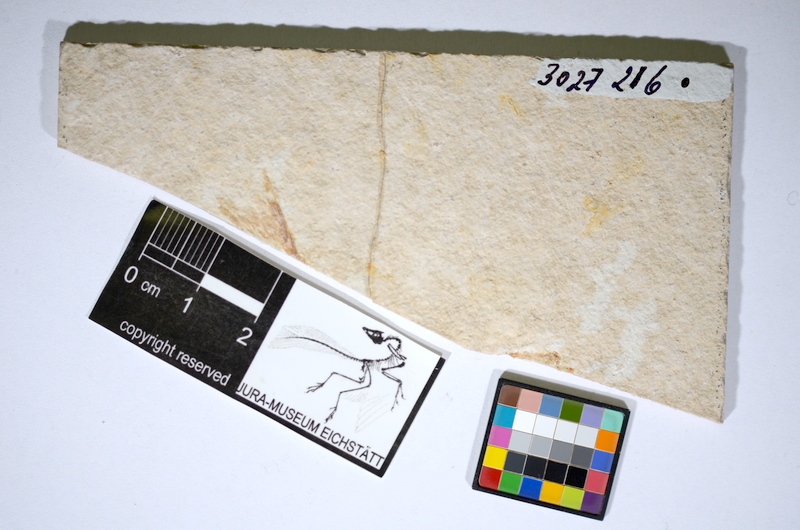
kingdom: Animalia
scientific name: Animalia
